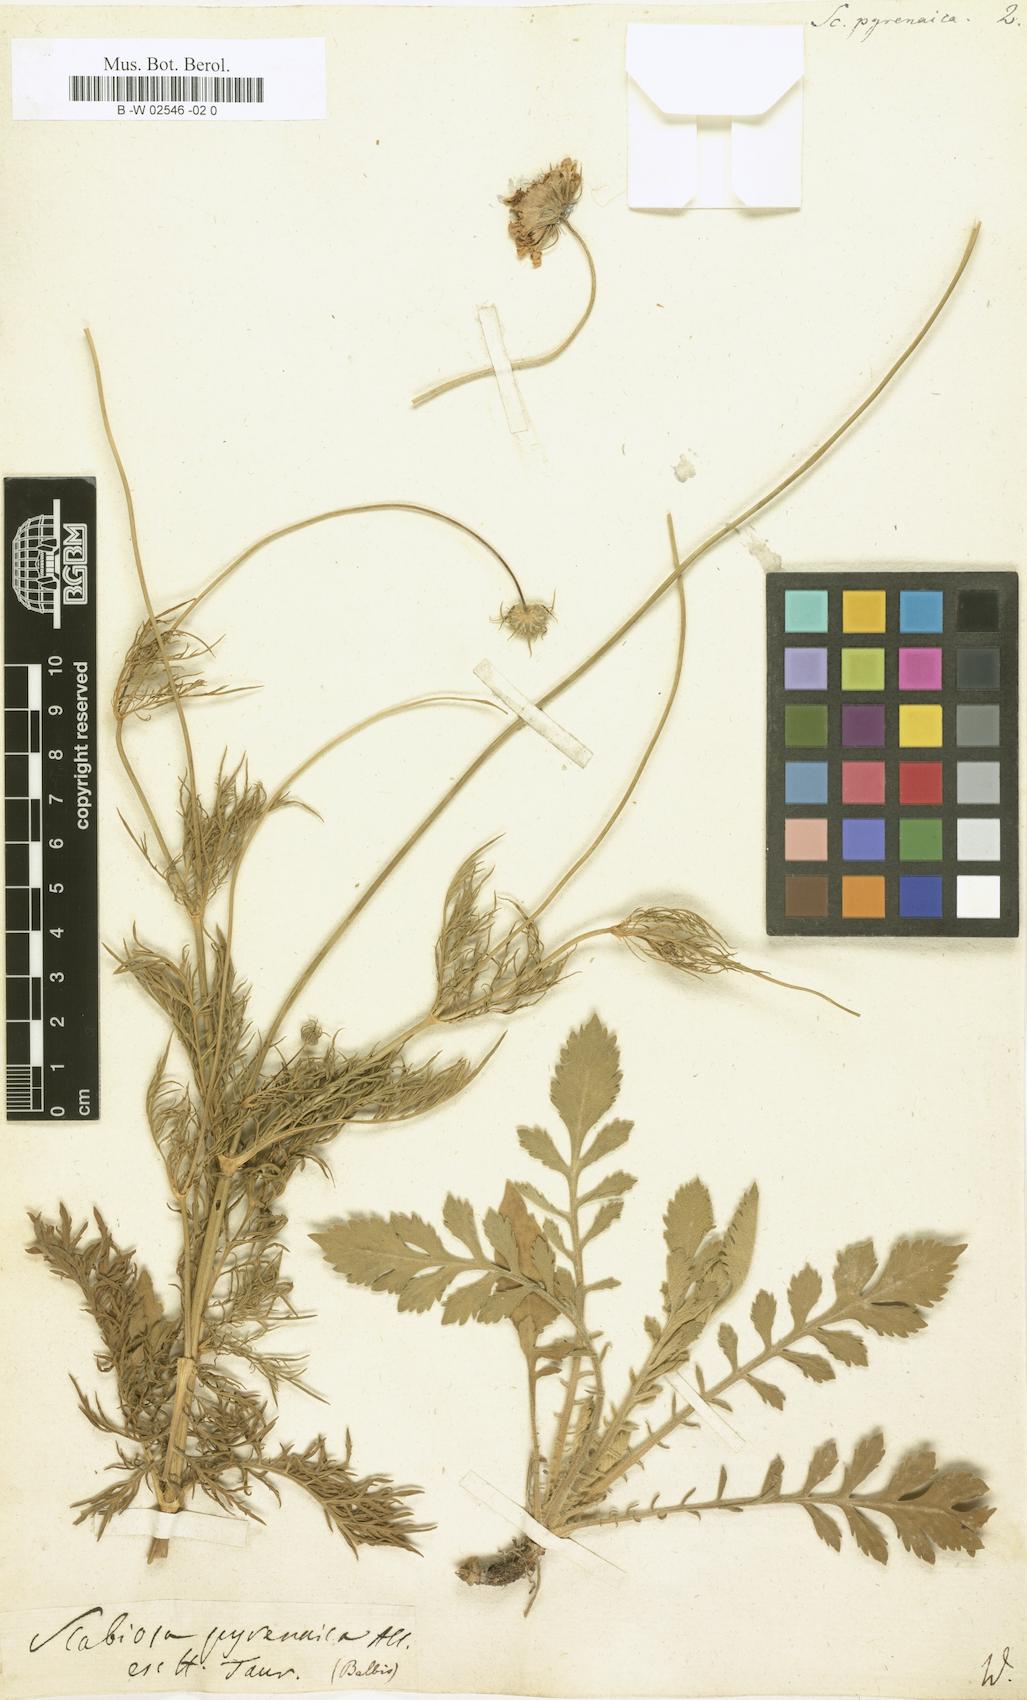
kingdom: Plantae
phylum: Tracheophyta
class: Magnoliopsida
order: Dipsacales
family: Caprifoliaceae
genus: Scabiosa
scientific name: Scabiosa pyrenaica
